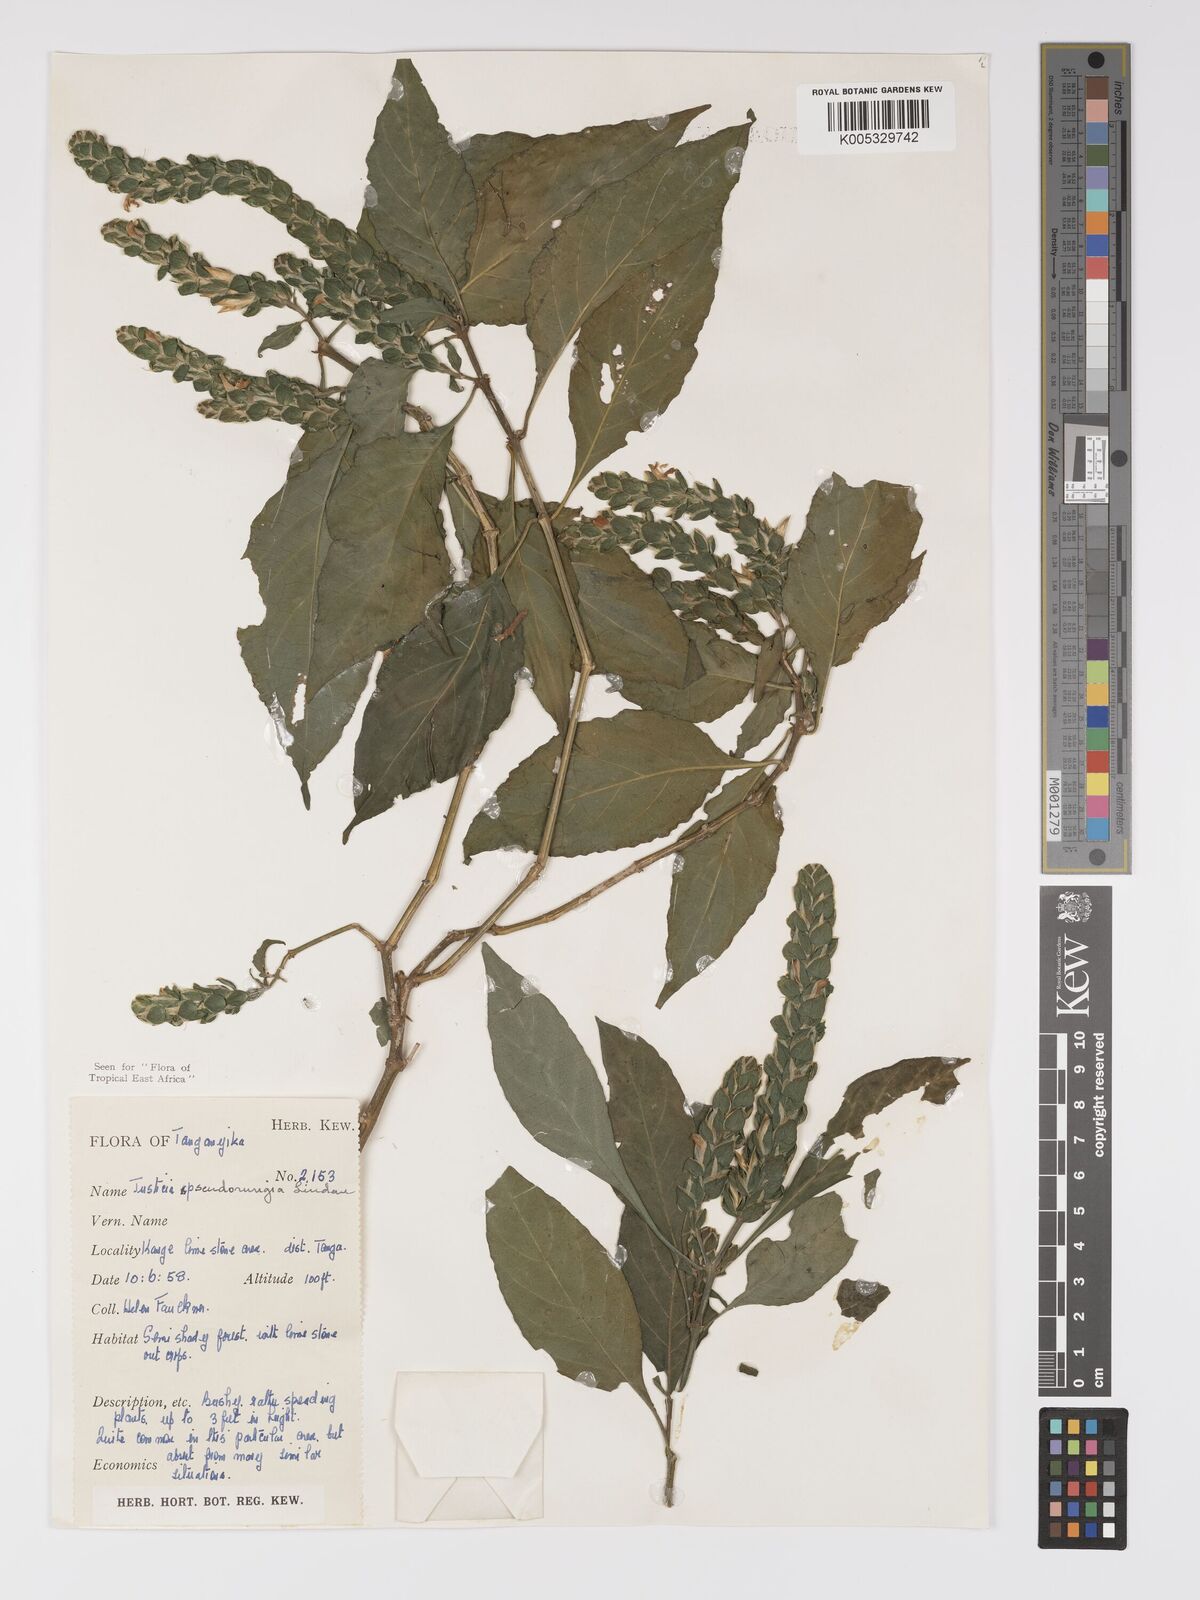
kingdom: Plantae
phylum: Tracheophyta
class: Magnoliopsida
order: Lamiales
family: Acanthaceae
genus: Justicia
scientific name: Justicia pseudorungia
